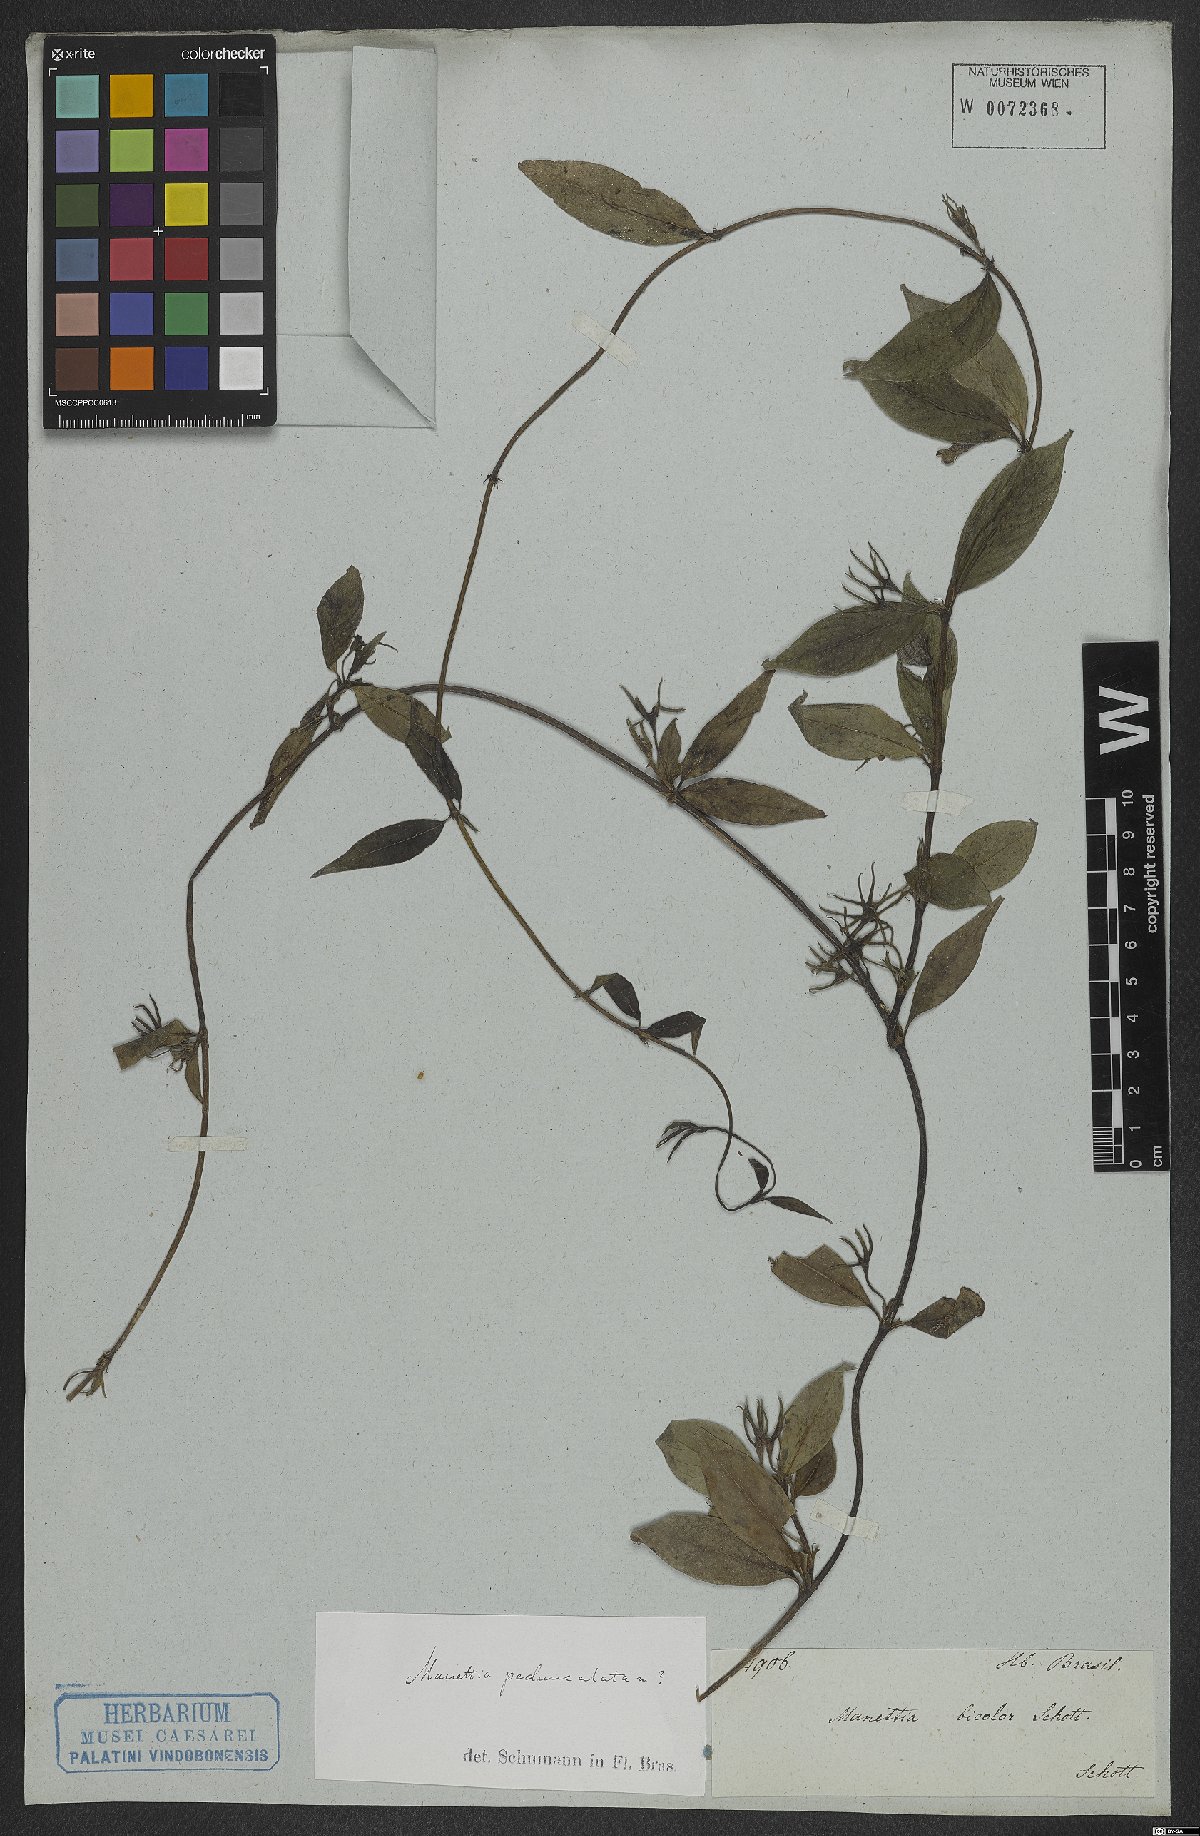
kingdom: Plantae
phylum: Tracheophyta
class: Magnoliopsida
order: Gentianales
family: Rubiaceae
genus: Manettia
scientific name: Manettia pedunculata
